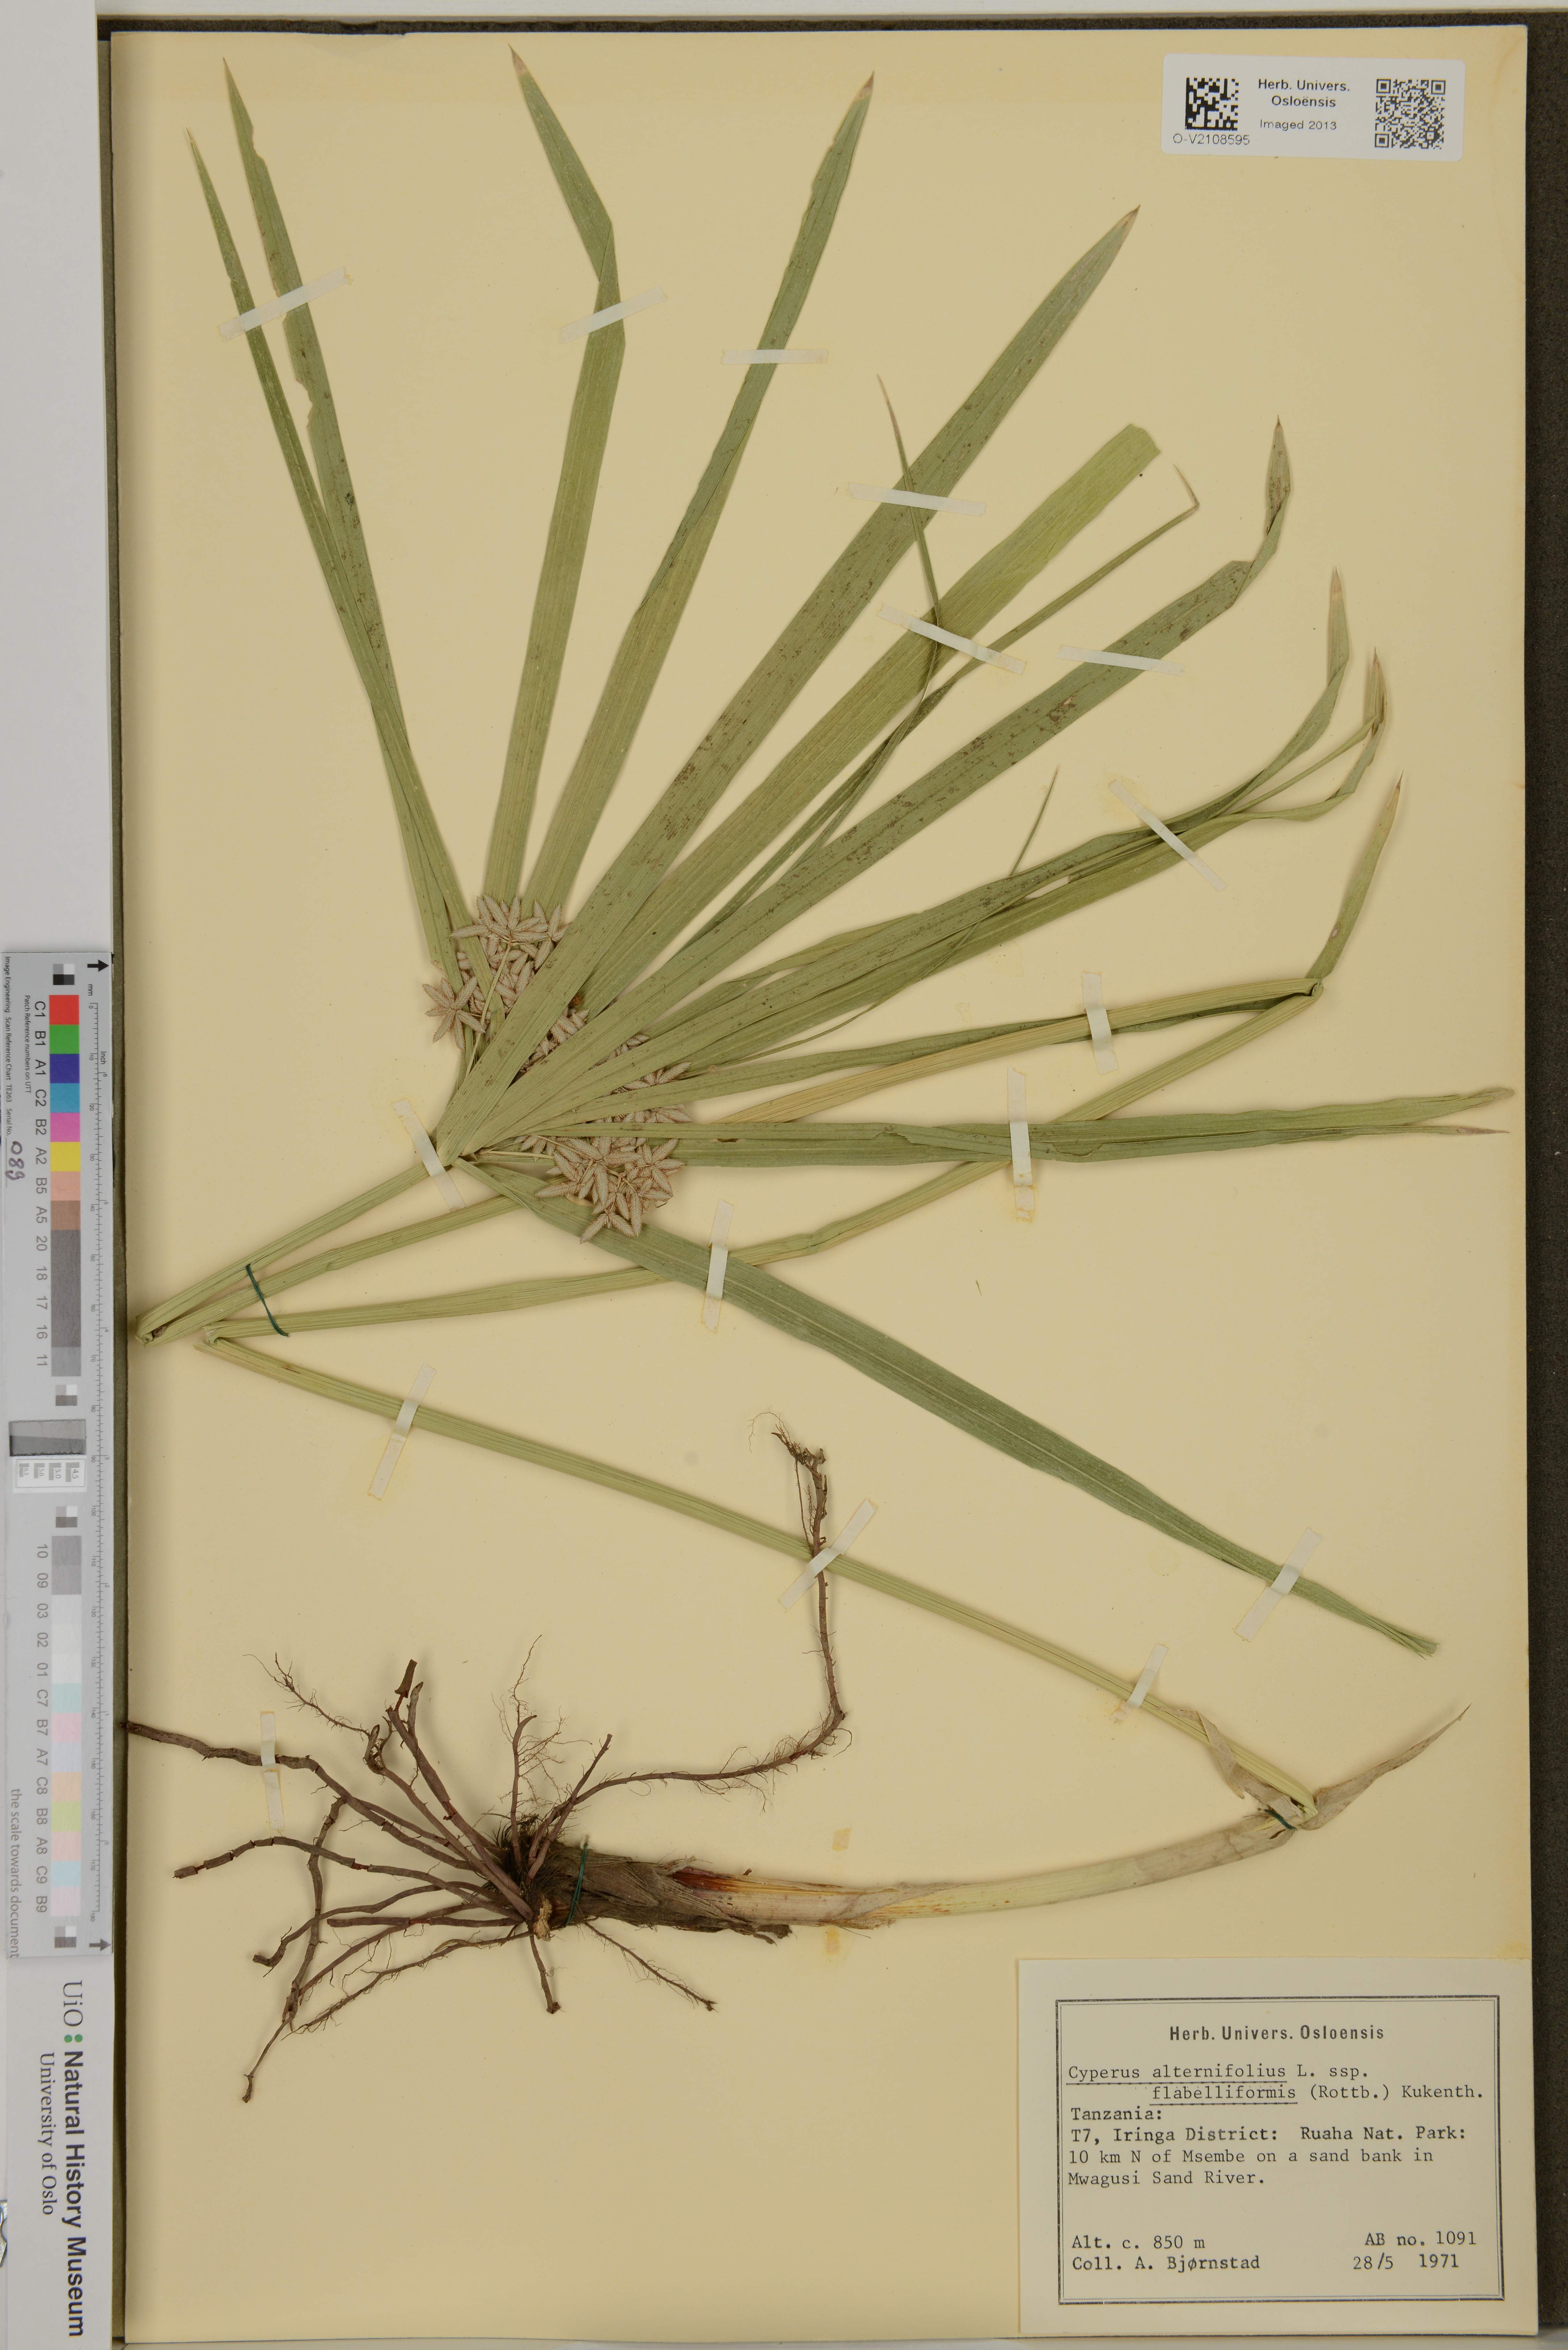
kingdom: Plantae
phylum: Tracheophyta
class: Liliopsida
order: Poales
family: Cyperaceae
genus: Cyperus
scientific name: Cyperus alternifolius
